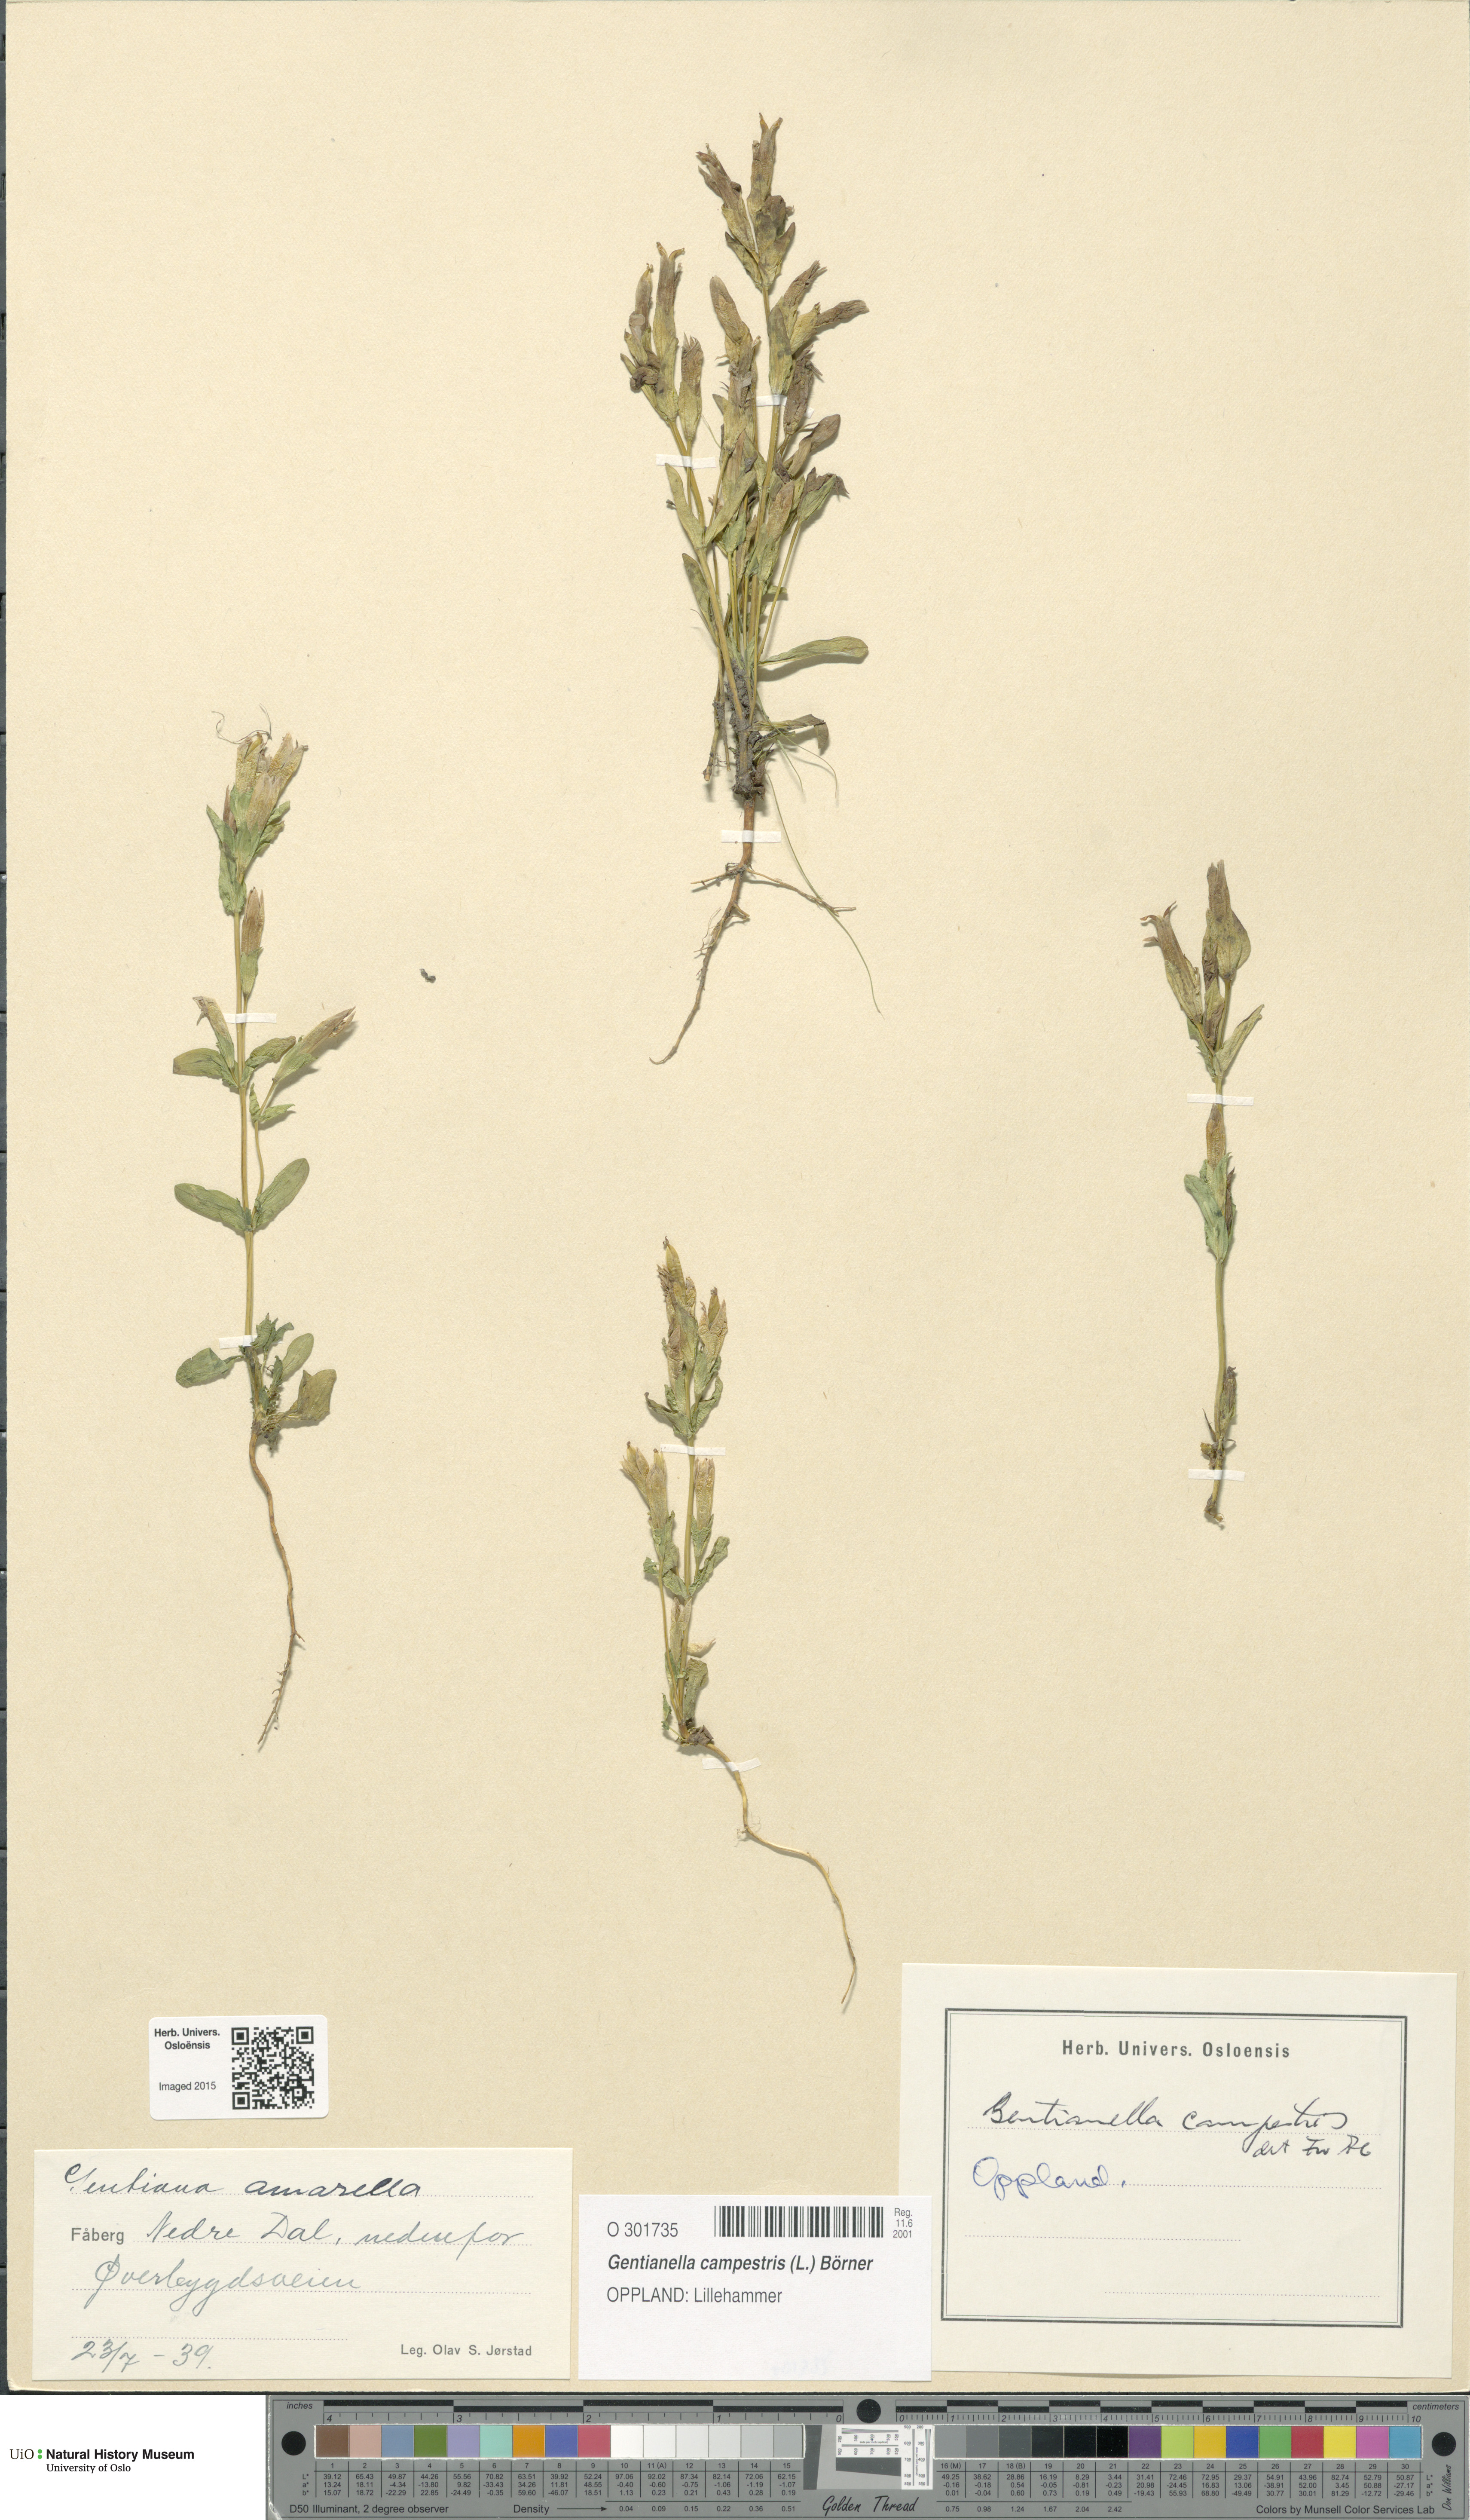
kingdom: Plantae
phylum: Tracheophyta
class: Magnoliopsida
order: Gentianales
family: Gentianaceae
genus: Gentianella
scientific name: Gentianella campestris
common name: Field gentian
